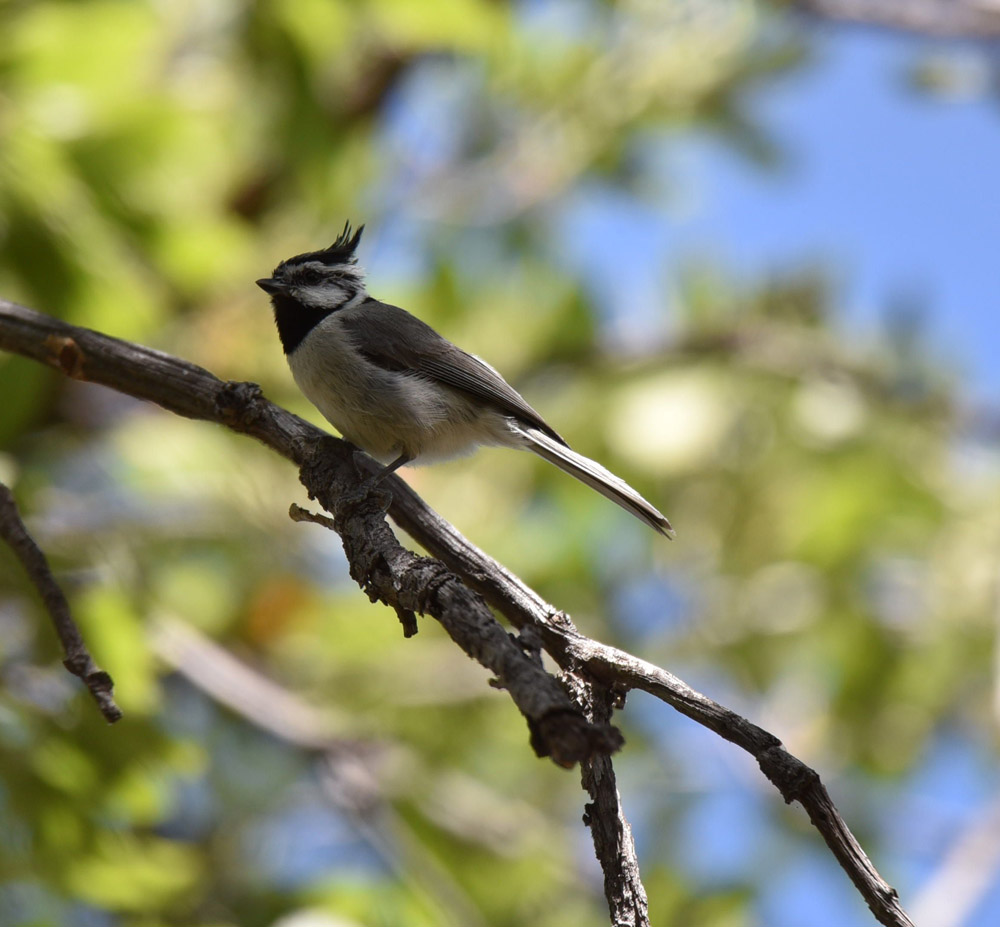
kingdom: Animalia
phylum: Chordata
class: Aves
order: Passeriformes
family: Paridae
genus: Baeolophus
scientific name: Baeolophus wollweberi
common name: Bridled titmouse
